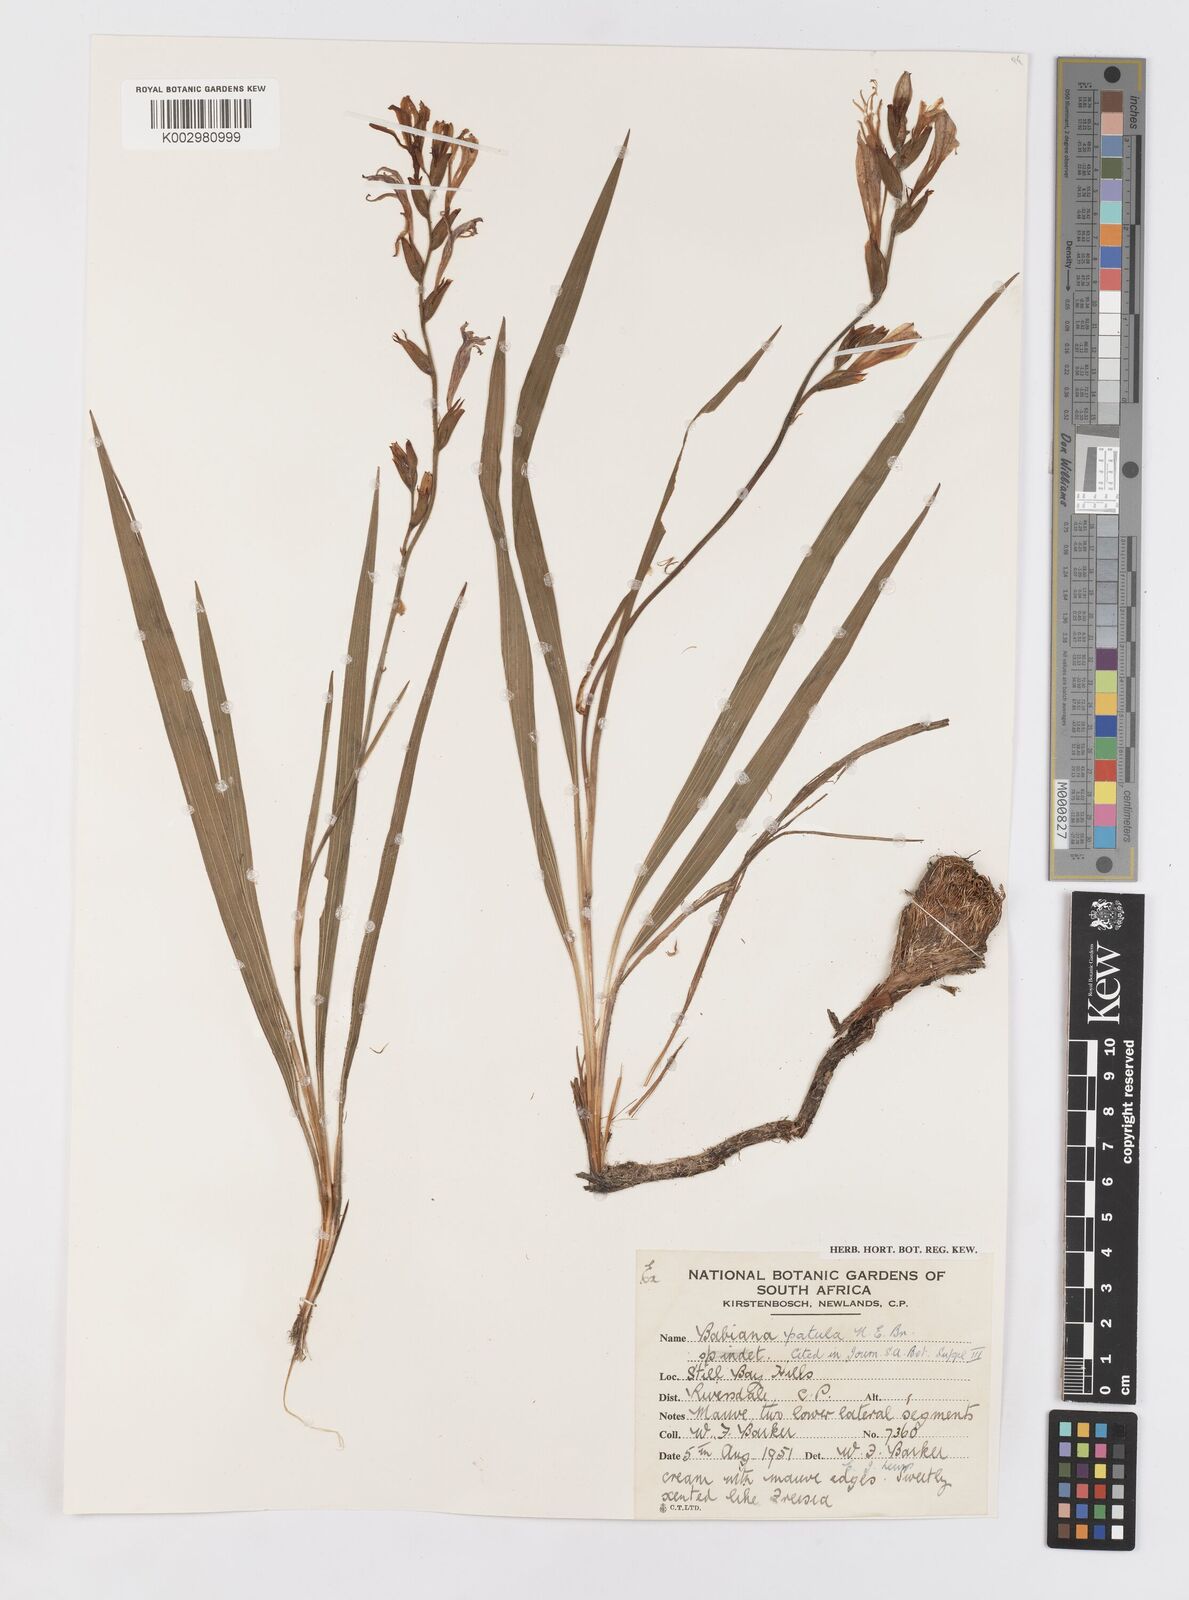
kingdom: Plantae
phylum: Tracheophyta
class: Liliopsida
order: Asparagales
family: Iridaceae
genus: Babiana
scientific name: Babiana patula
